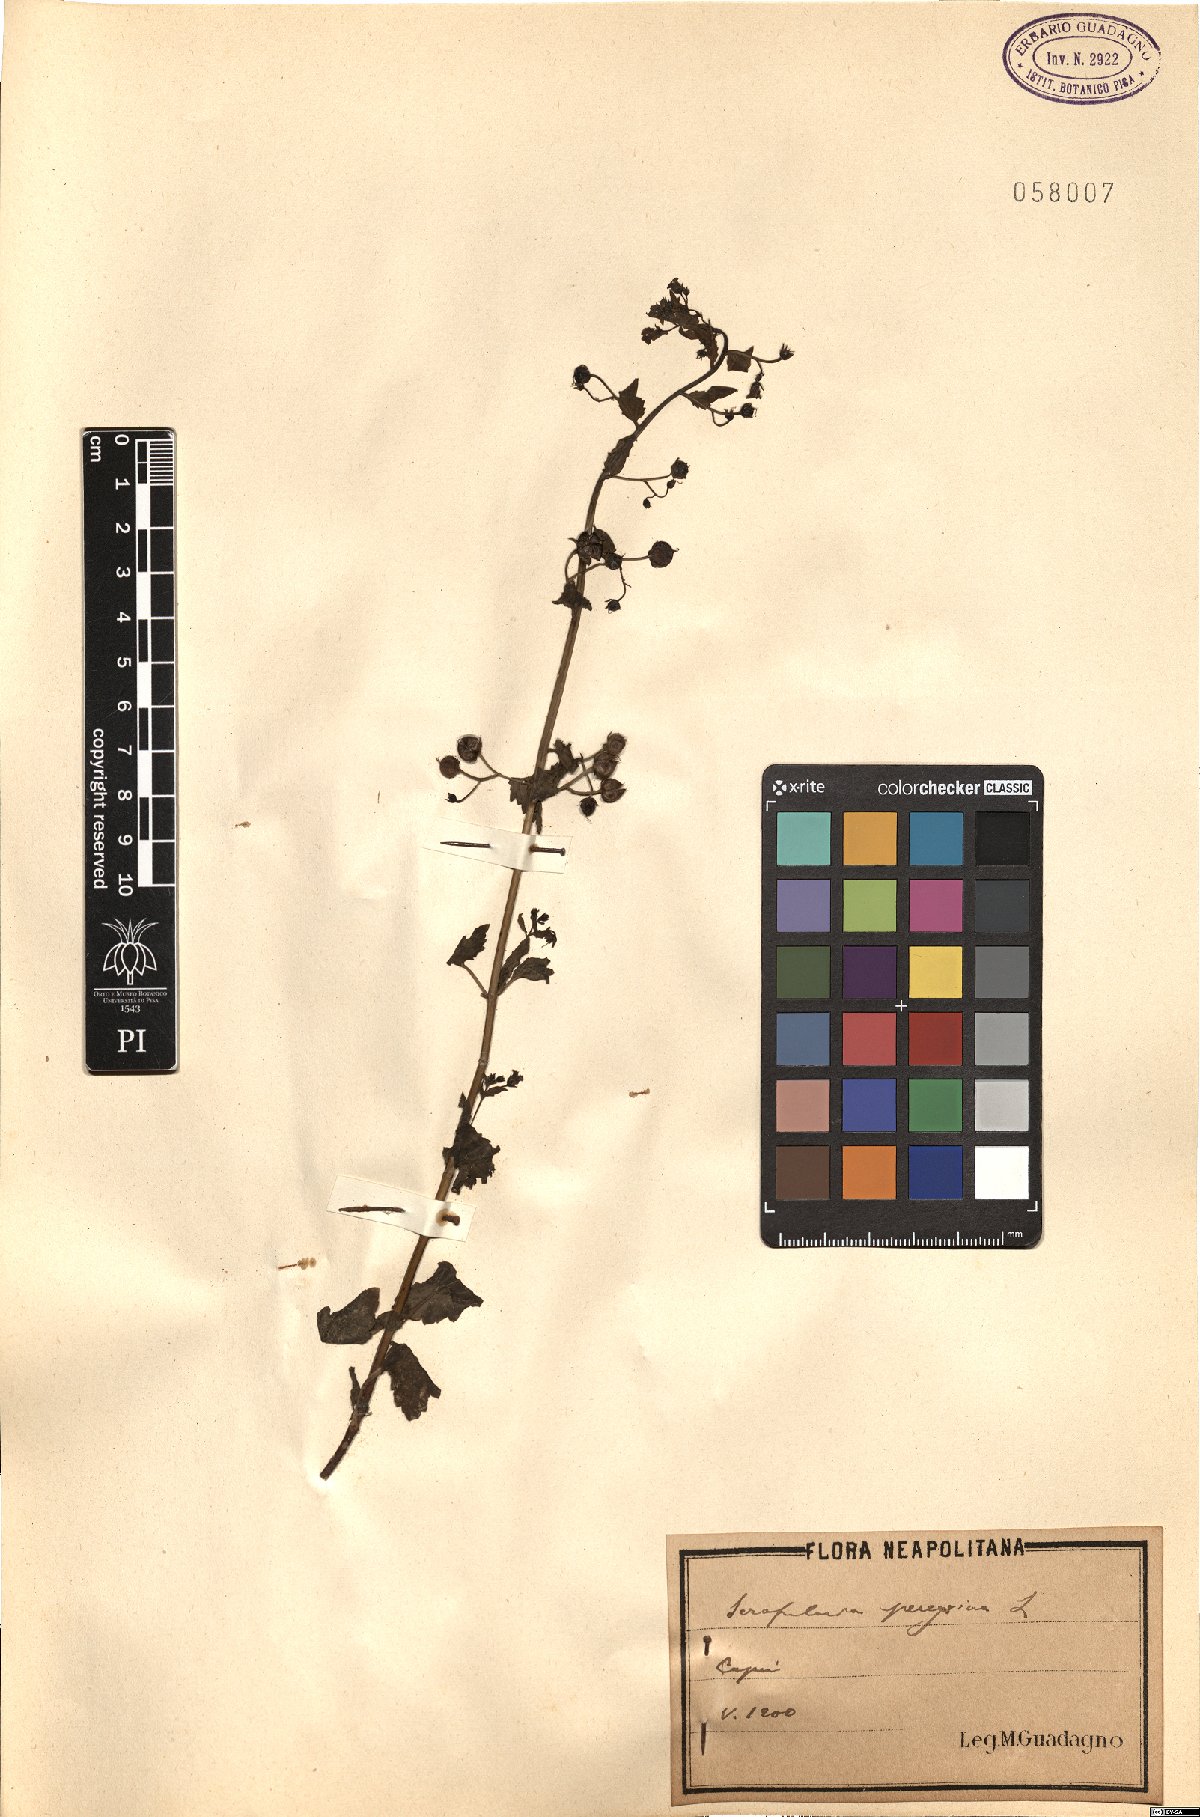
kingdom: Plantae
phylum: Tracheophyta
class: Magnoliopsida
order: Lamiales
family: Scrophulariaceae
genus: Scrophularia
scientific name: Scrophularia peregrina
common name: Mediterranean figwort
